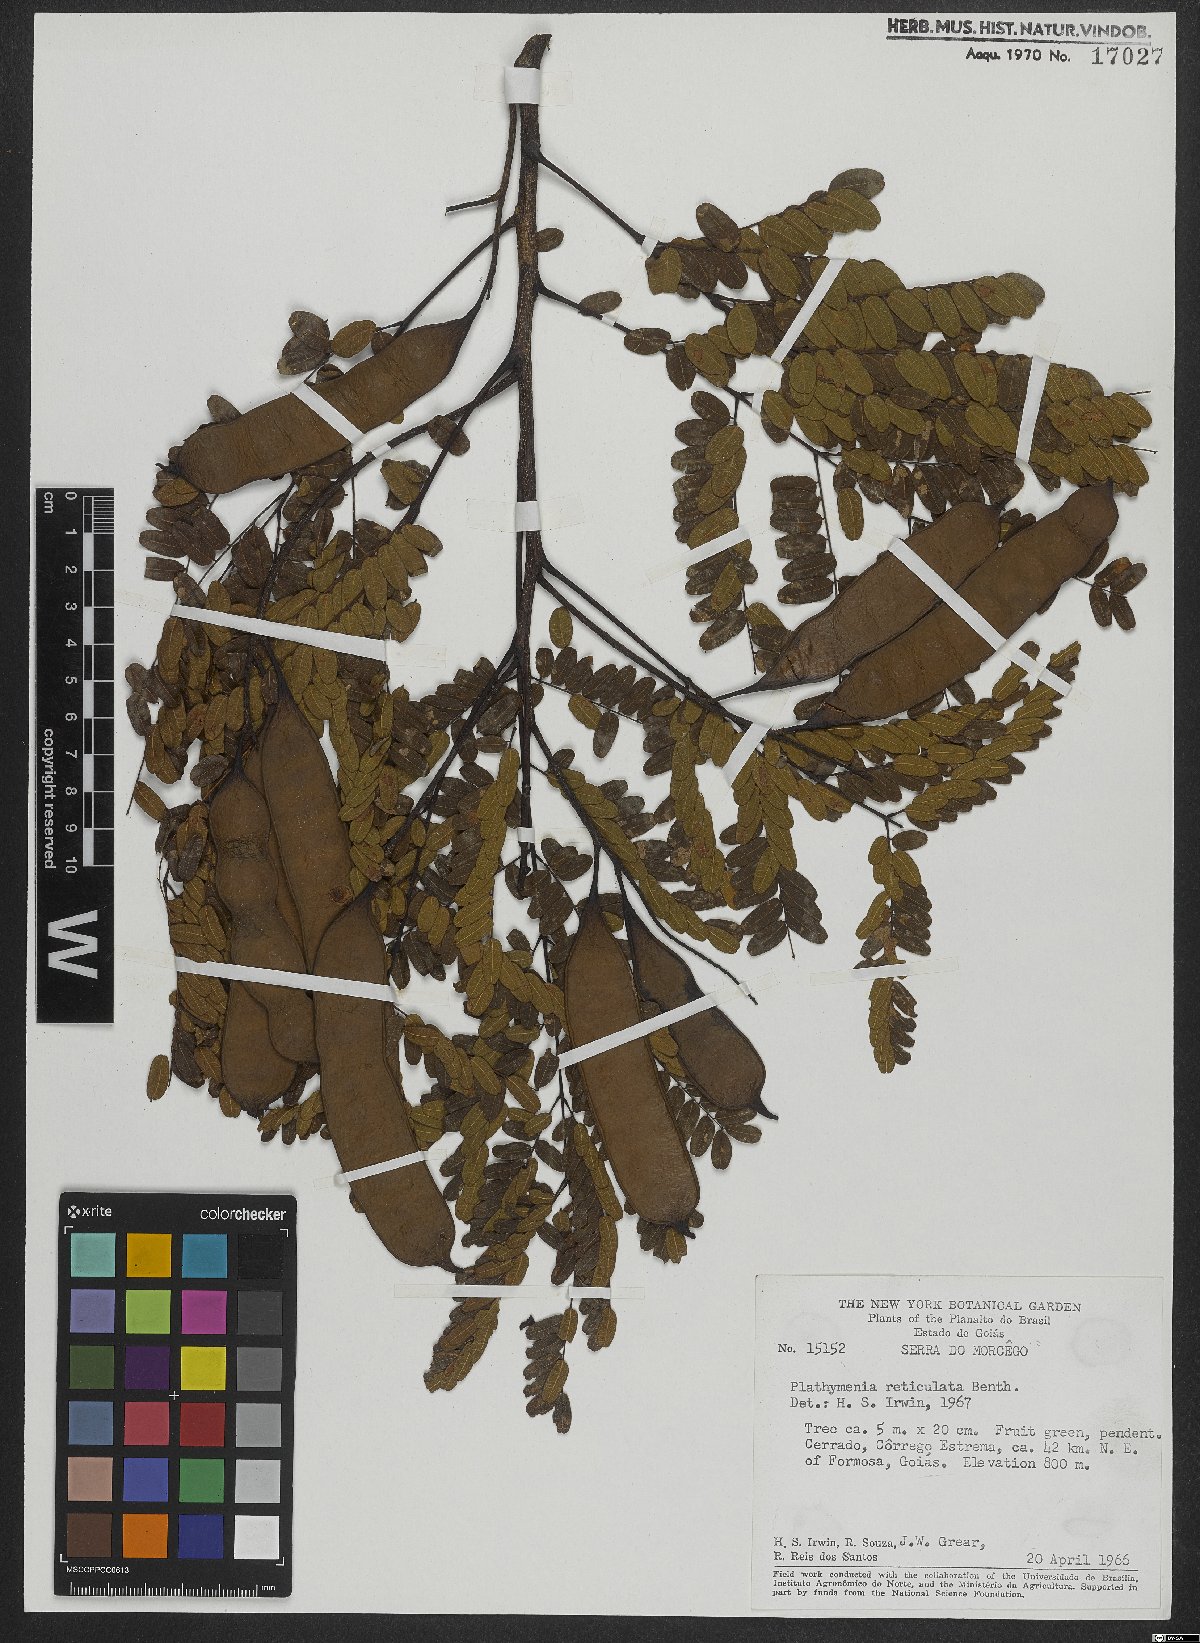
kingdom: Plantae
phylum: Tracheophyta
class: Magnoliopsida
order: Fabales
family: Fabaceae
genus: Plathymenia
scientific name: Plathymenia reticulata
